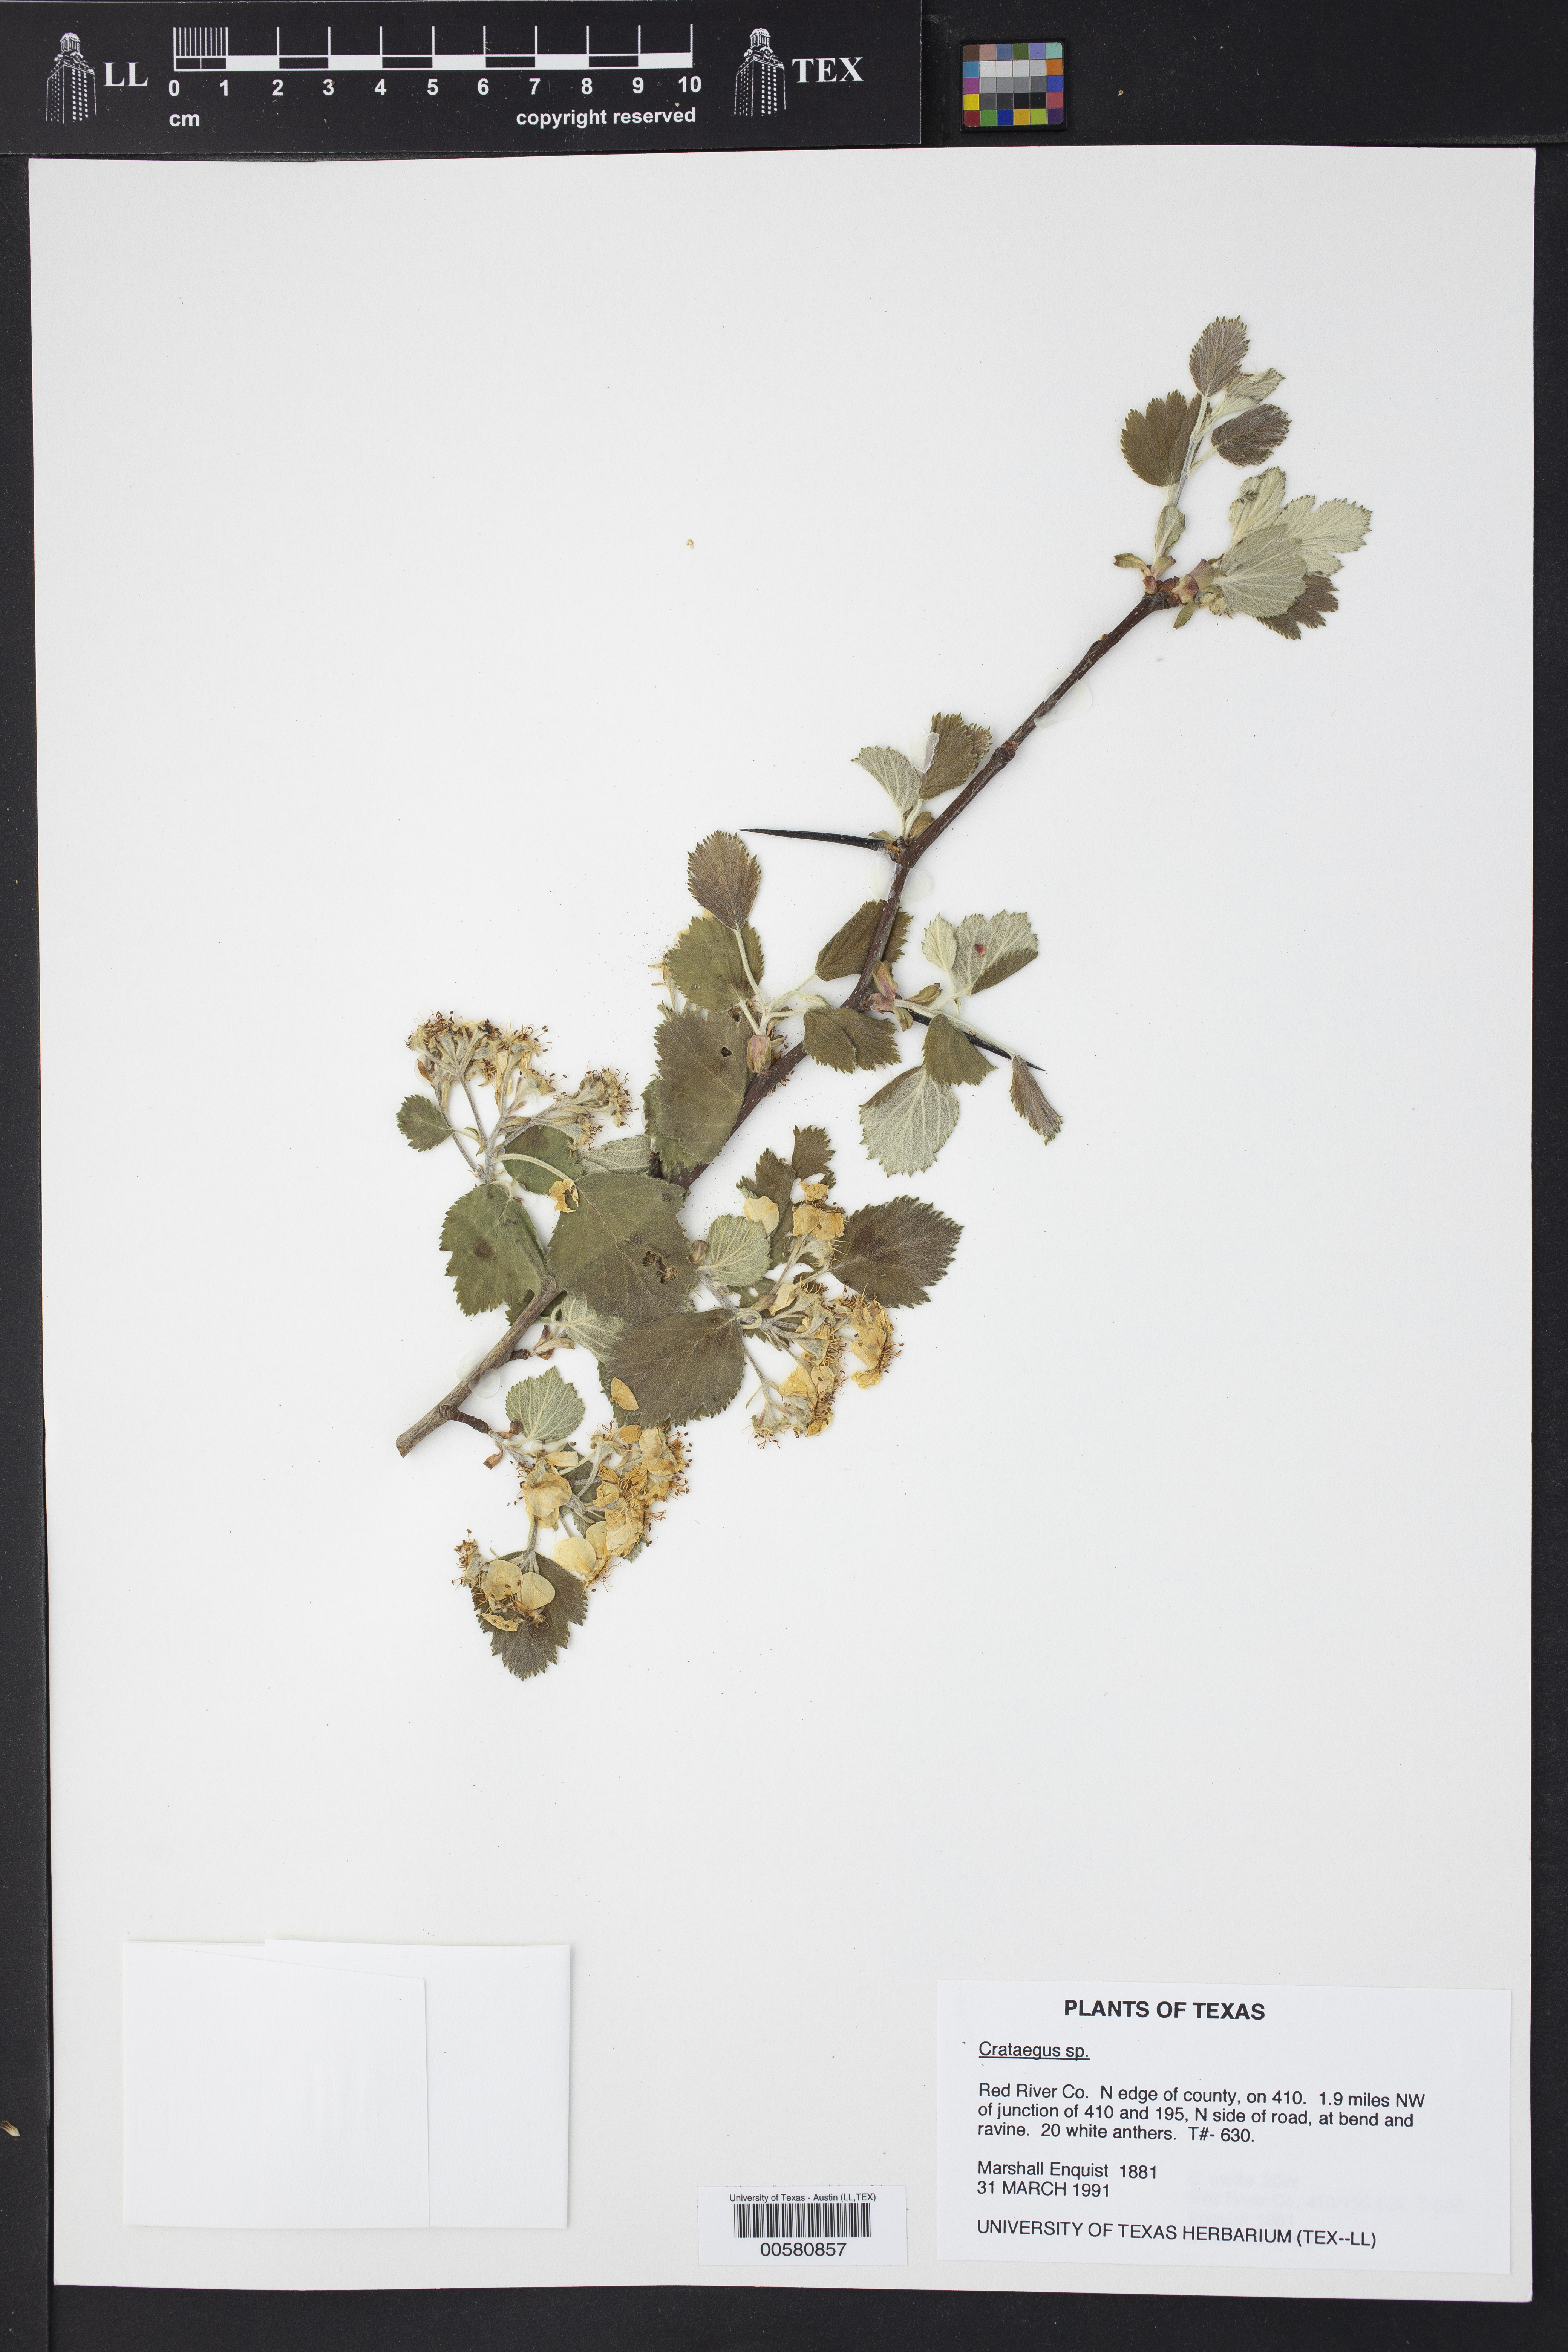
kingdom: Plantae
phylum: Tracheophyta
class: Magnoliopsida
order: Rosales
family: Rosaceae
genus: Crataegus
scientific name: Crataegus
